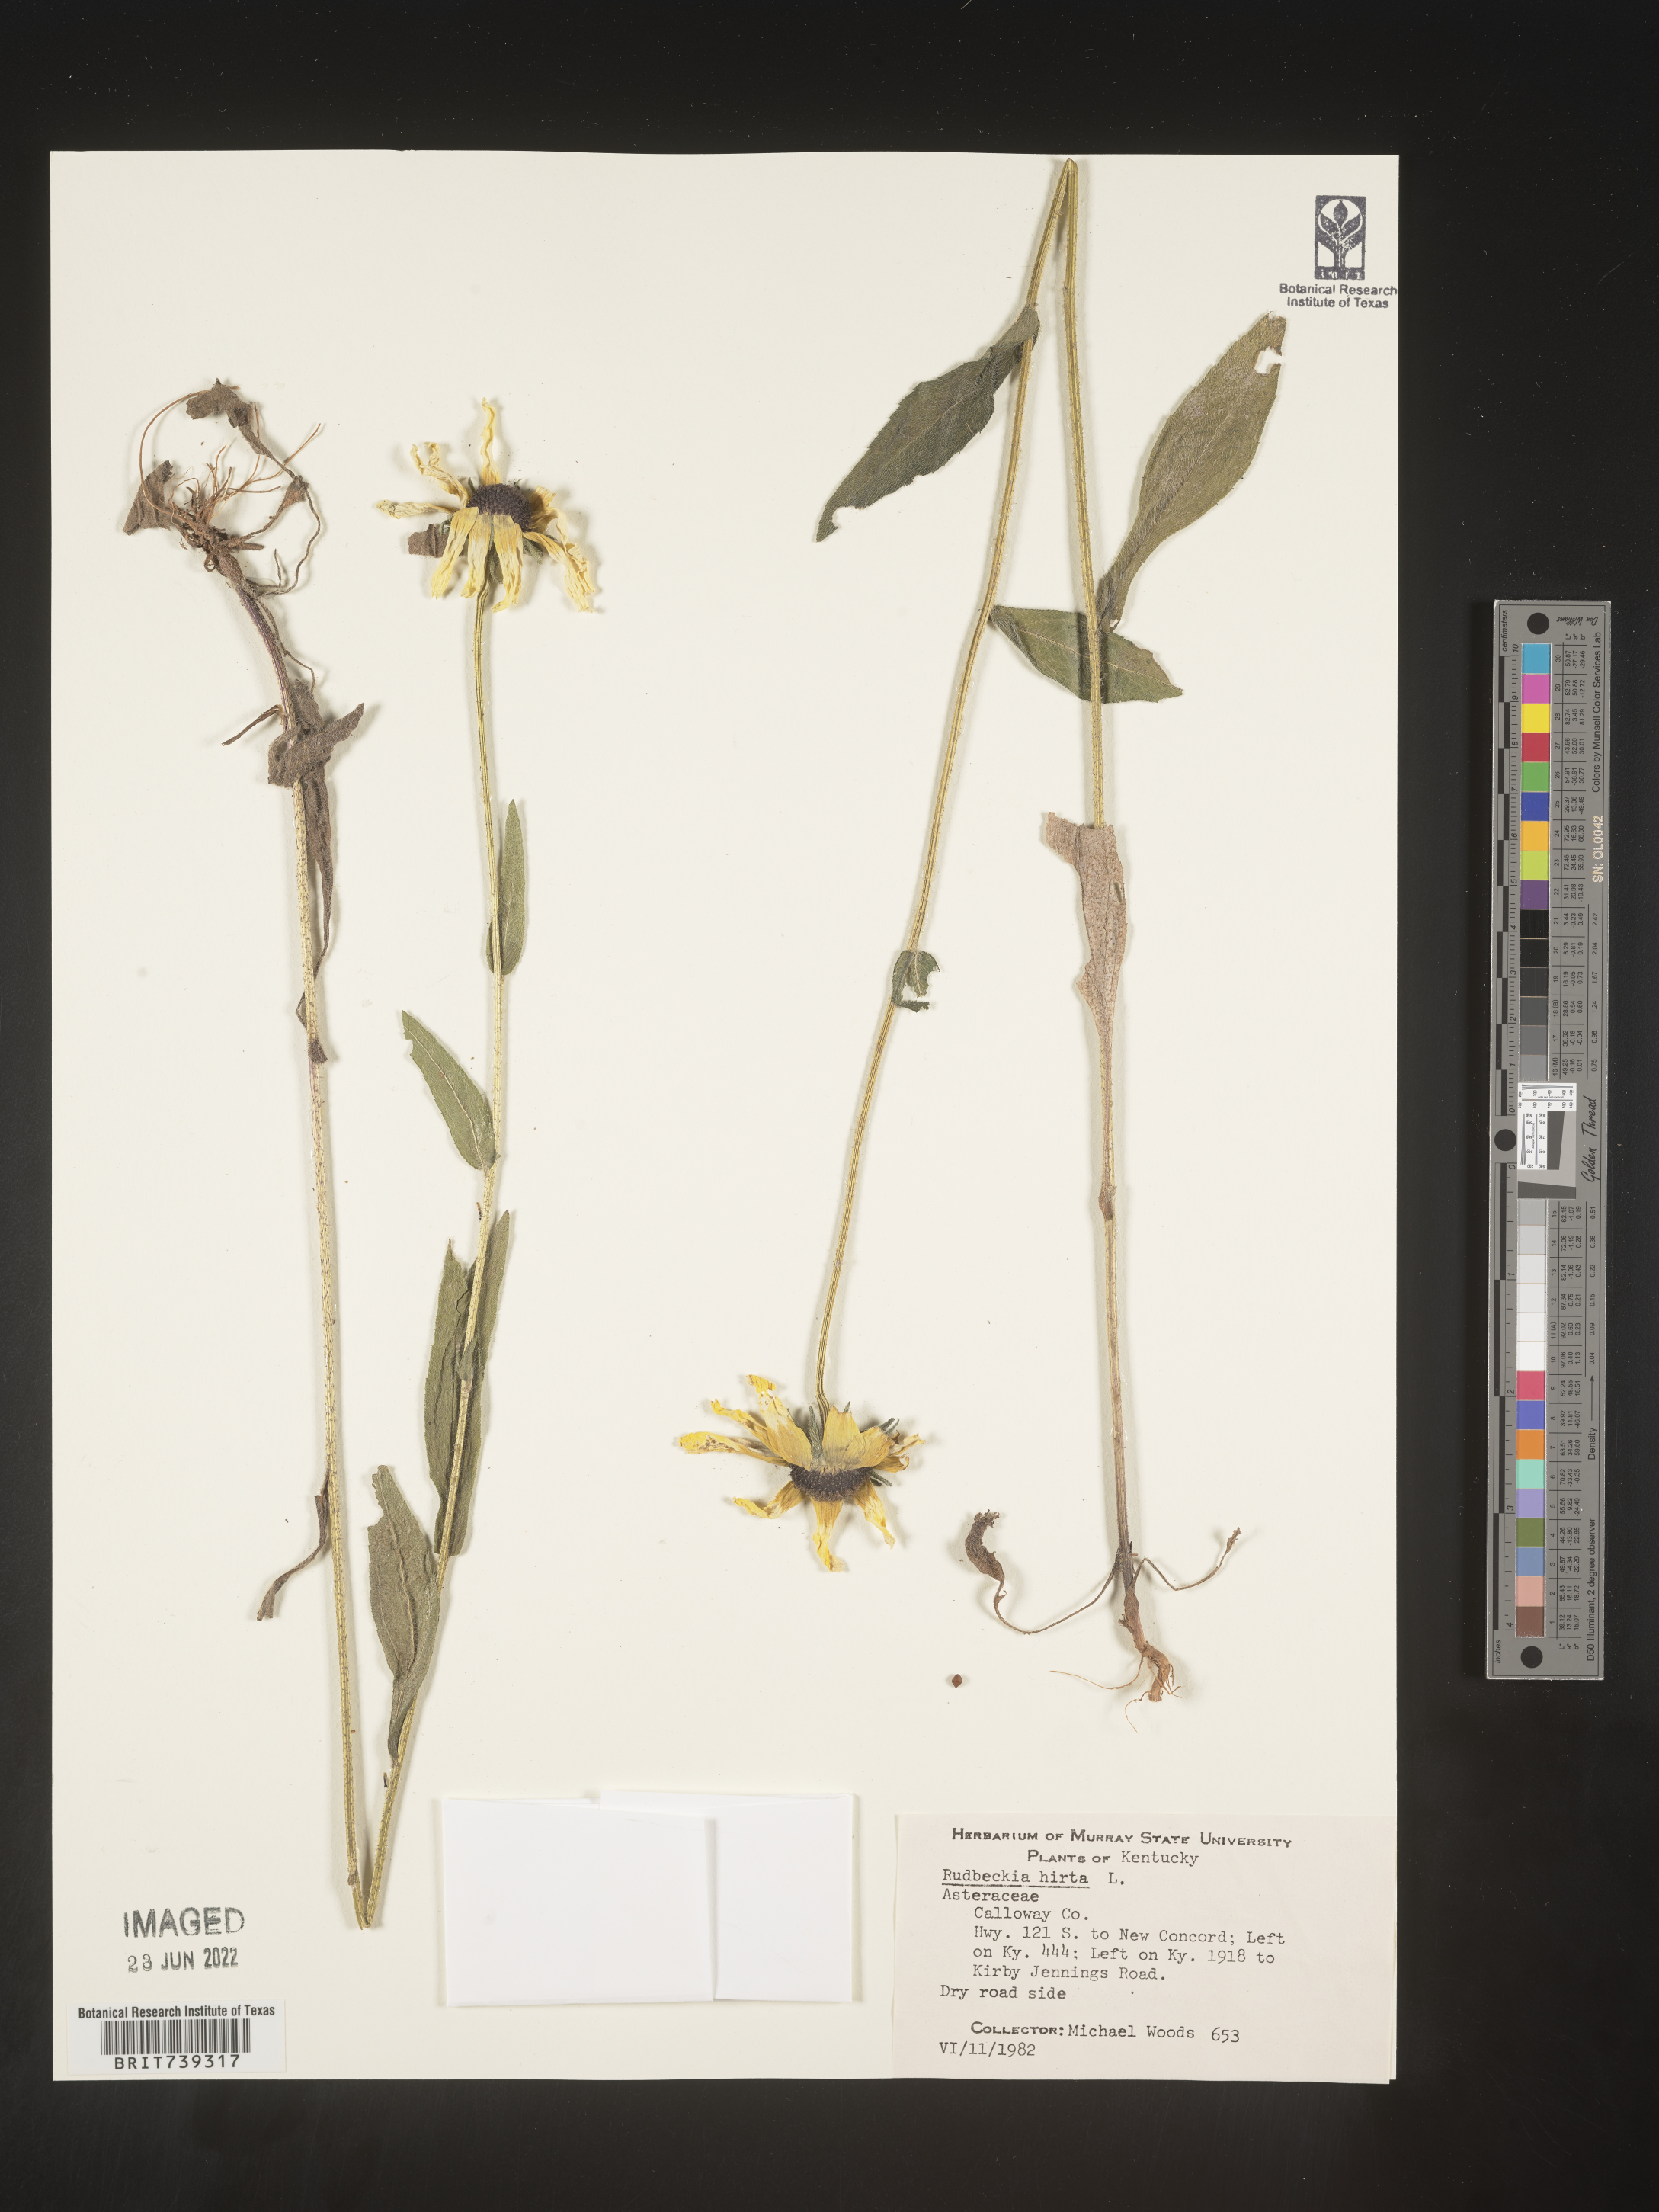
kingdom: Plantae
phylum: Tracheophyta
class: Magnoliopsida
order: Asterales
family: Asteraceae
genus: Rudbeckia
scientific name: Rudbeckia hirta
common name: Black-eyed-susan
